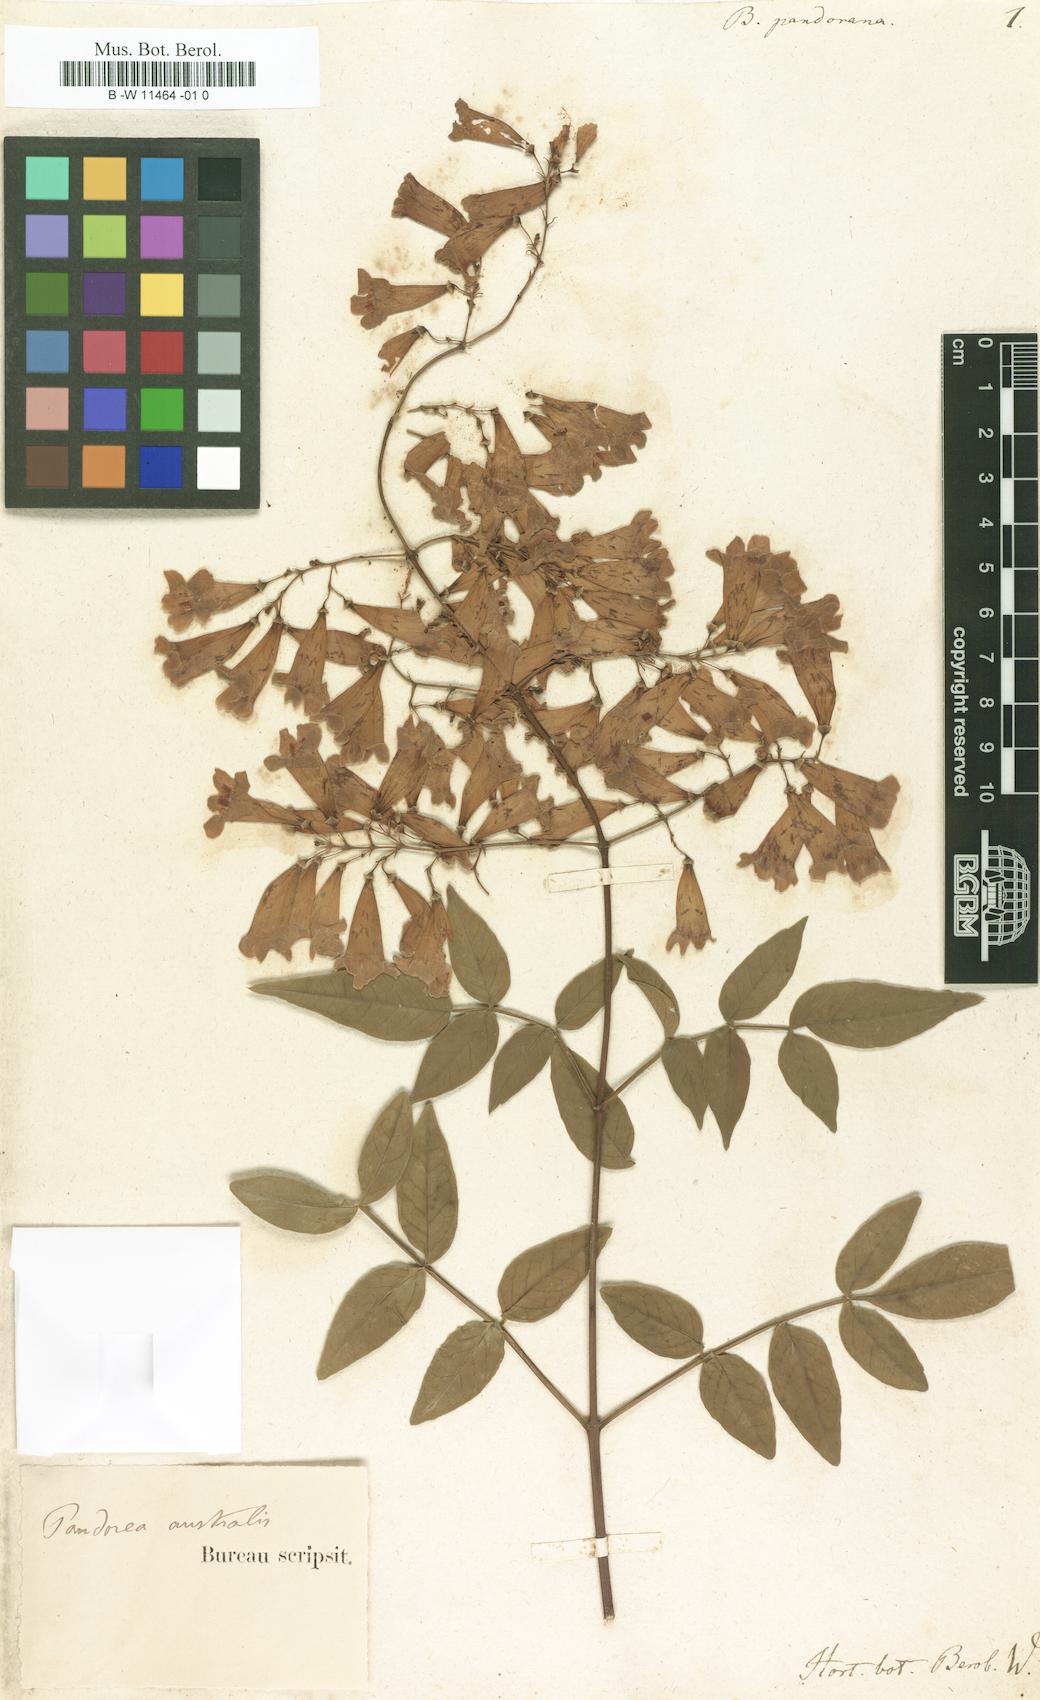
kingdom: Plantae
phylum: Tracheophyta
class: Magnoliopsida
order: Lamiales
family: Bignoniaceae
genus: Pandorea
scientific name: Pandorea pandorana
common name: Wonga-wonga-vine
